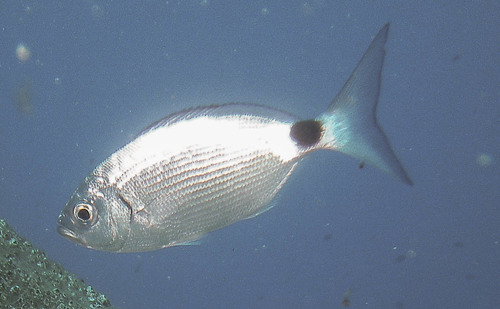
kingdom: Animalia
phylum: Chordata
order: Perciformes
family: Sparidae
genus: Oblada
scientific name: Oblada melanura
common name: Saddled seabream
